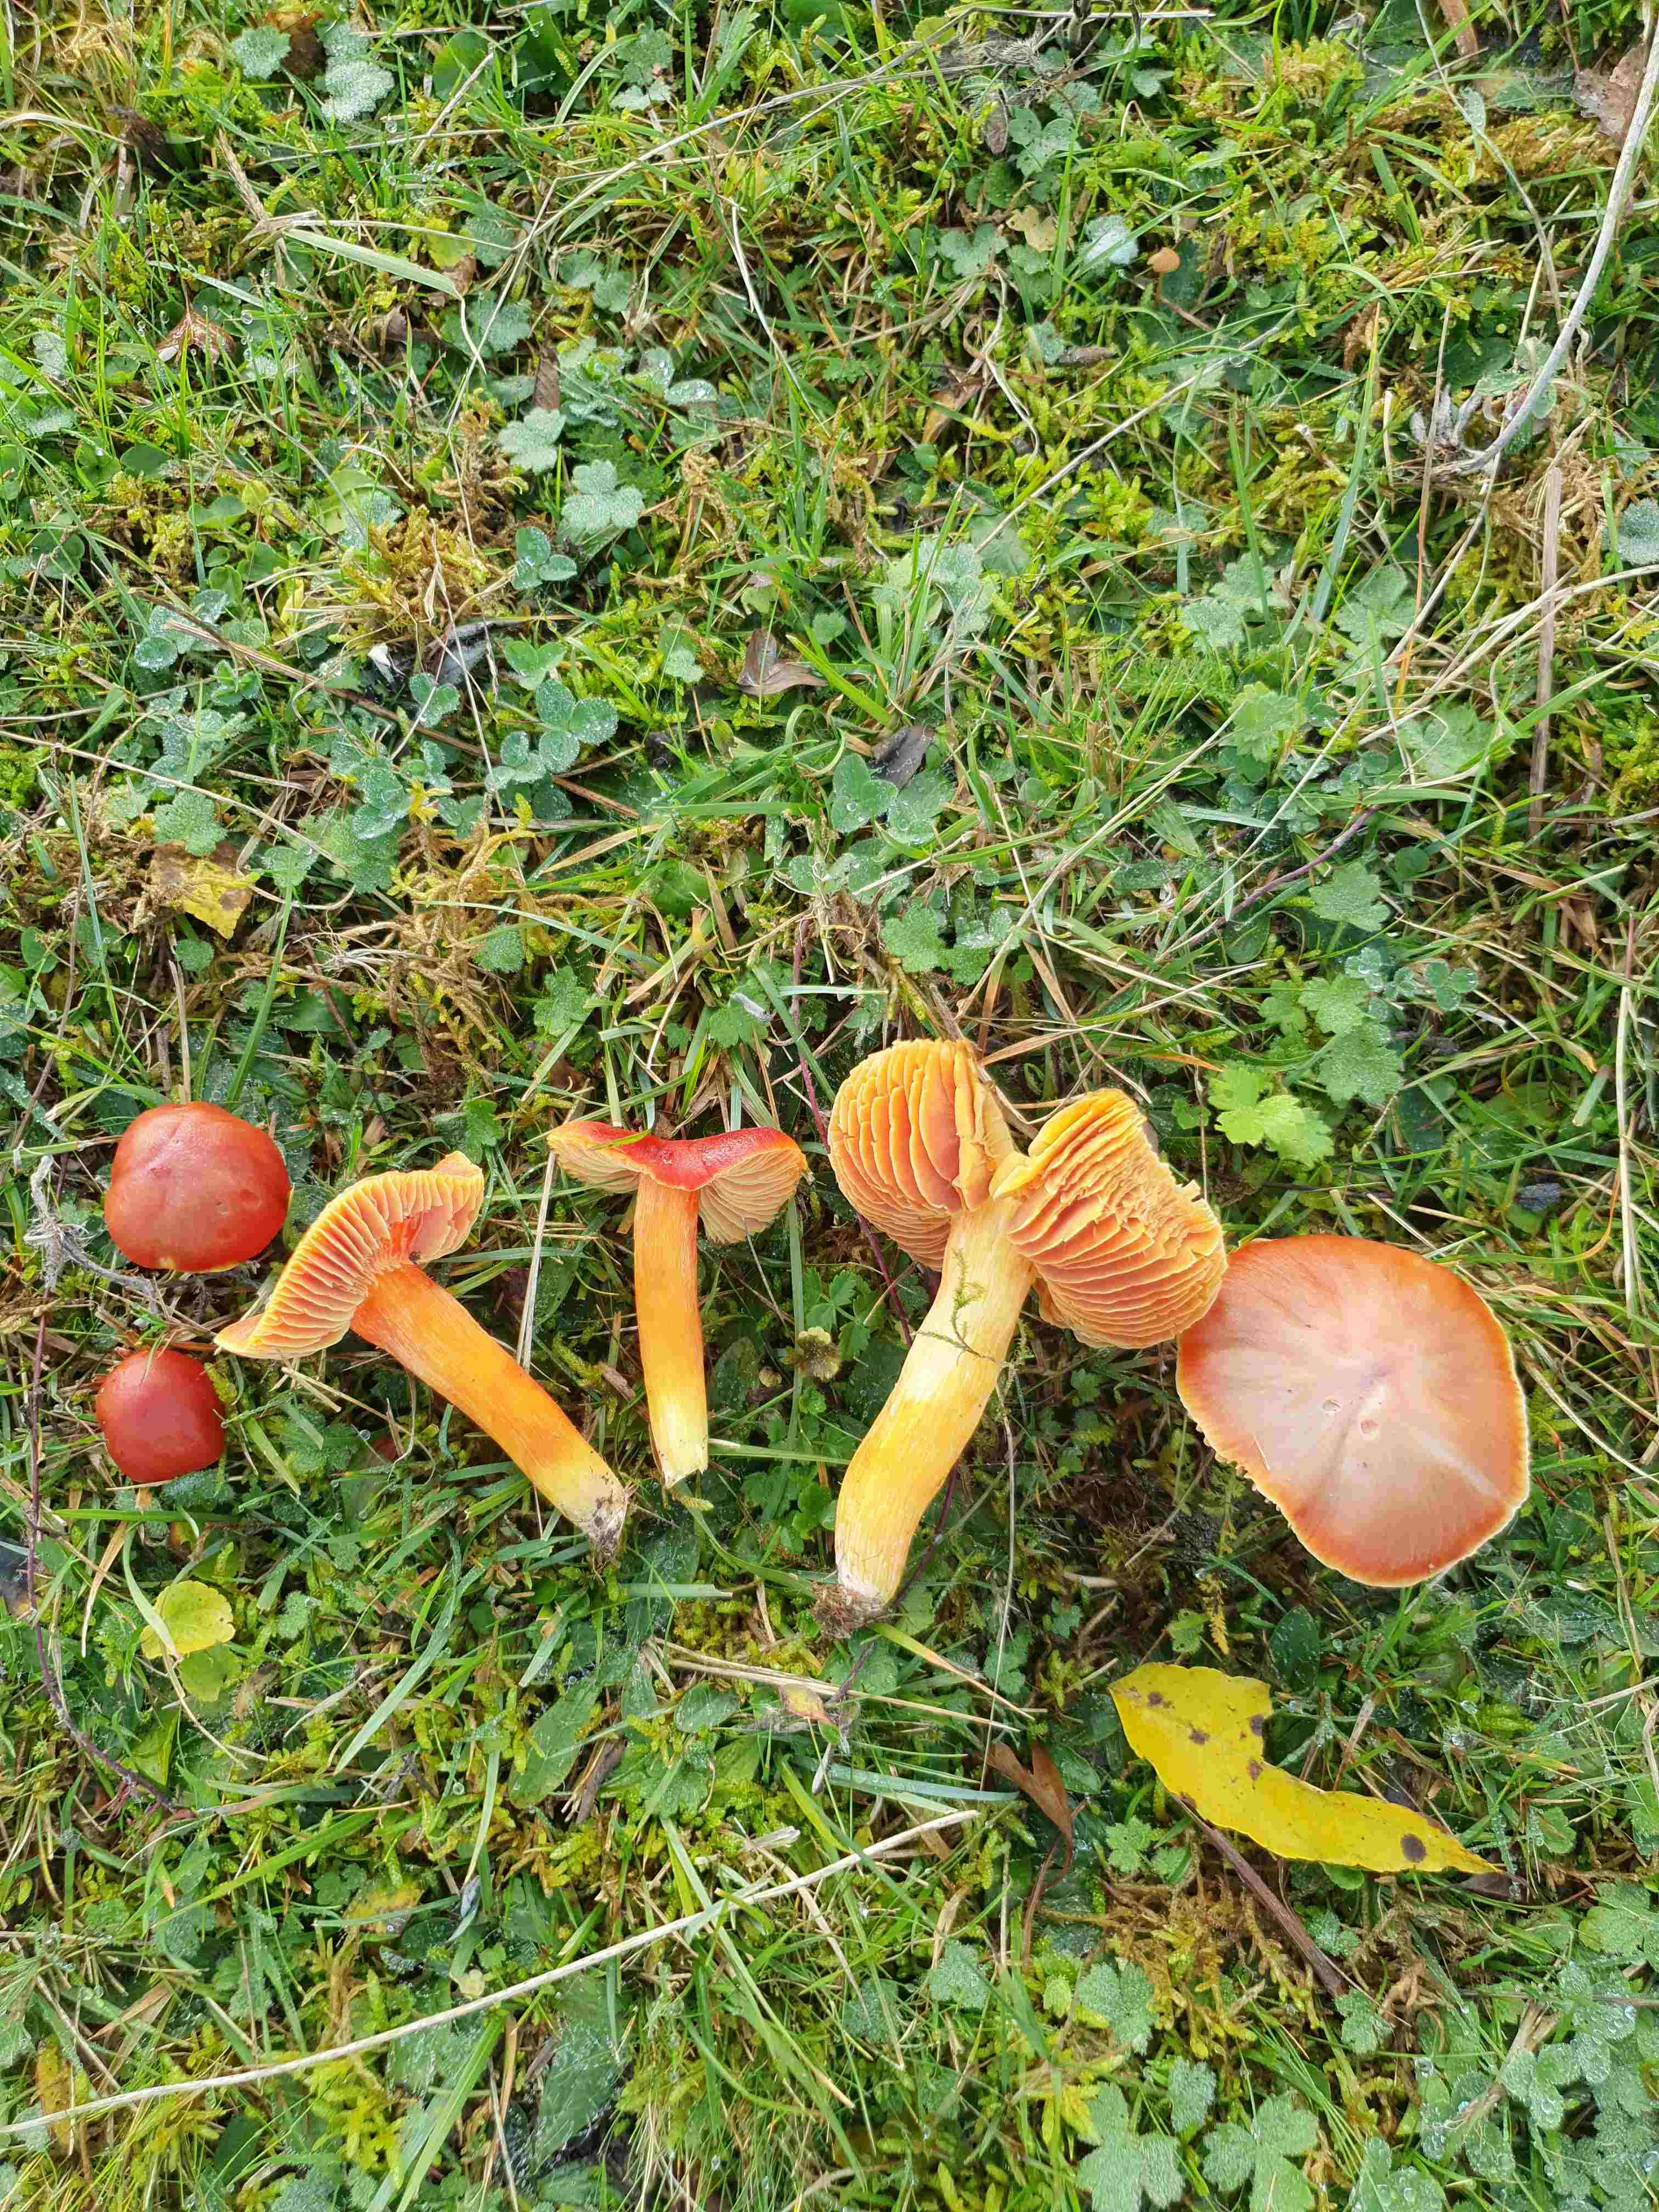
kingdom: Fungi
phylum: Basidiomycota
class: Agaricomycetes
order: Agaricales
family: Hygrophoraceae
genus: Hygrocybe
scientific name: Hygrocybe punicea
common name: skarlagen-vokshat
